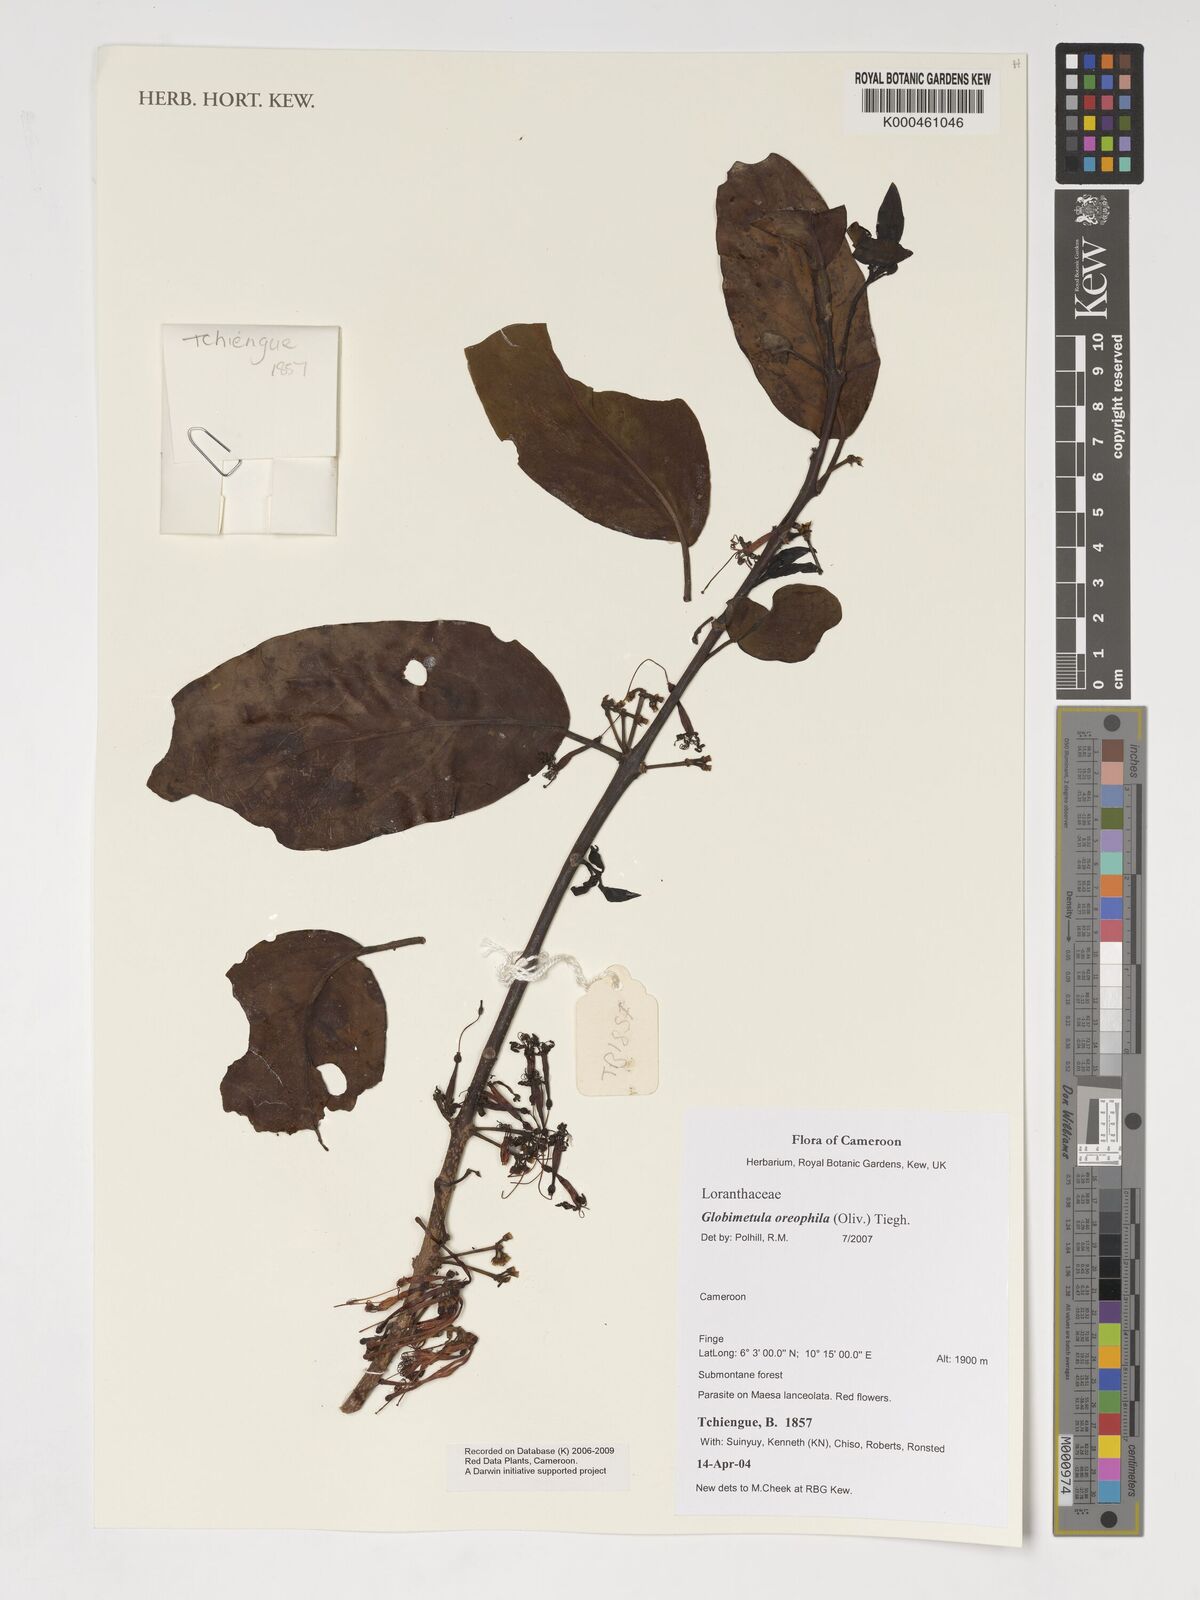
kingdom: Plantae
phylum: Tracheophyta
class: Magnoliopsida
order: Santalales
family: Loranthaceae
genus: Globimetula
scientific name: Globimetula
